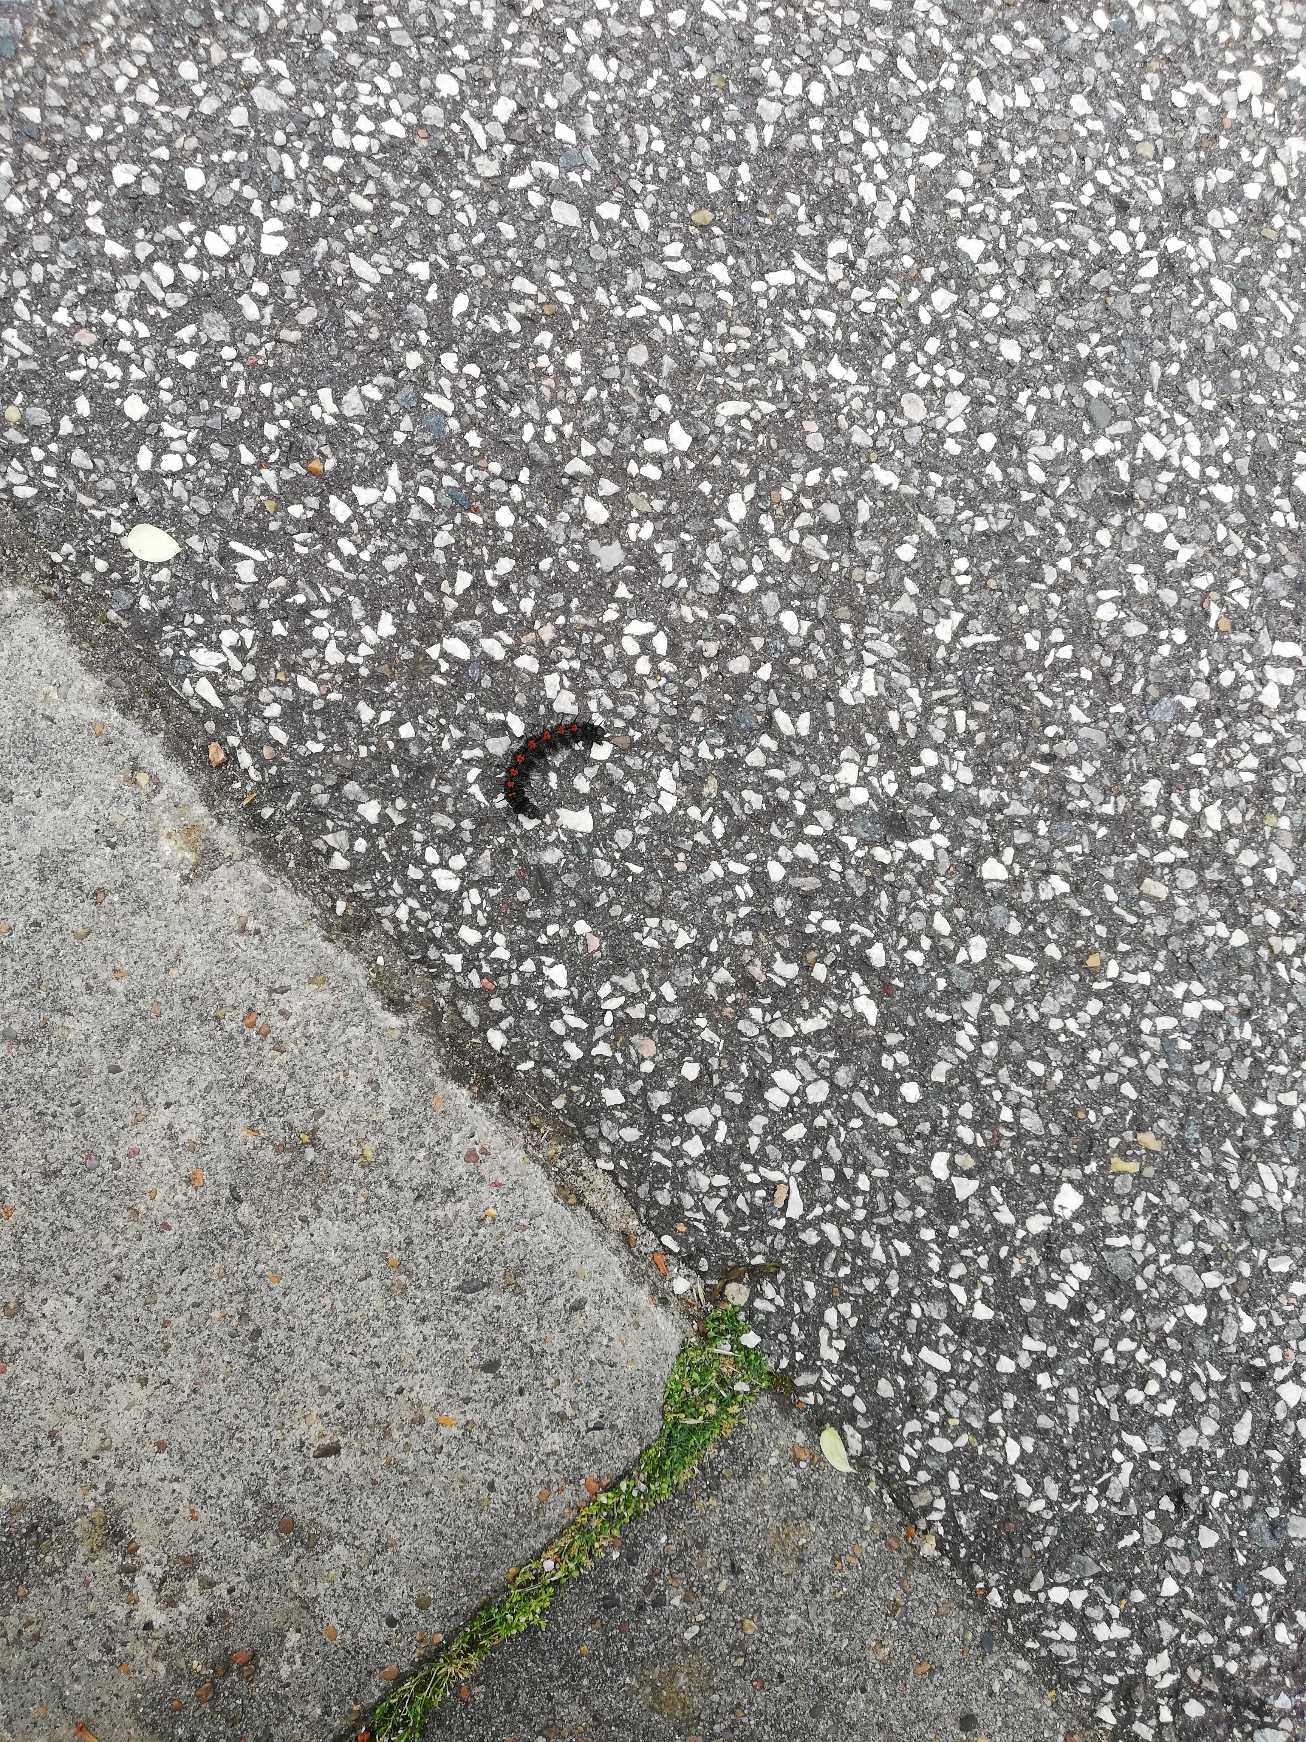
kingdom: Animalia
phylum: Arthropoda
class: Insecta
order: Lepidoptera
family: Nymphalidae
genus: Nymphalis
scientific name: Nymphalis antiopa
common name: Sørgekåbe
